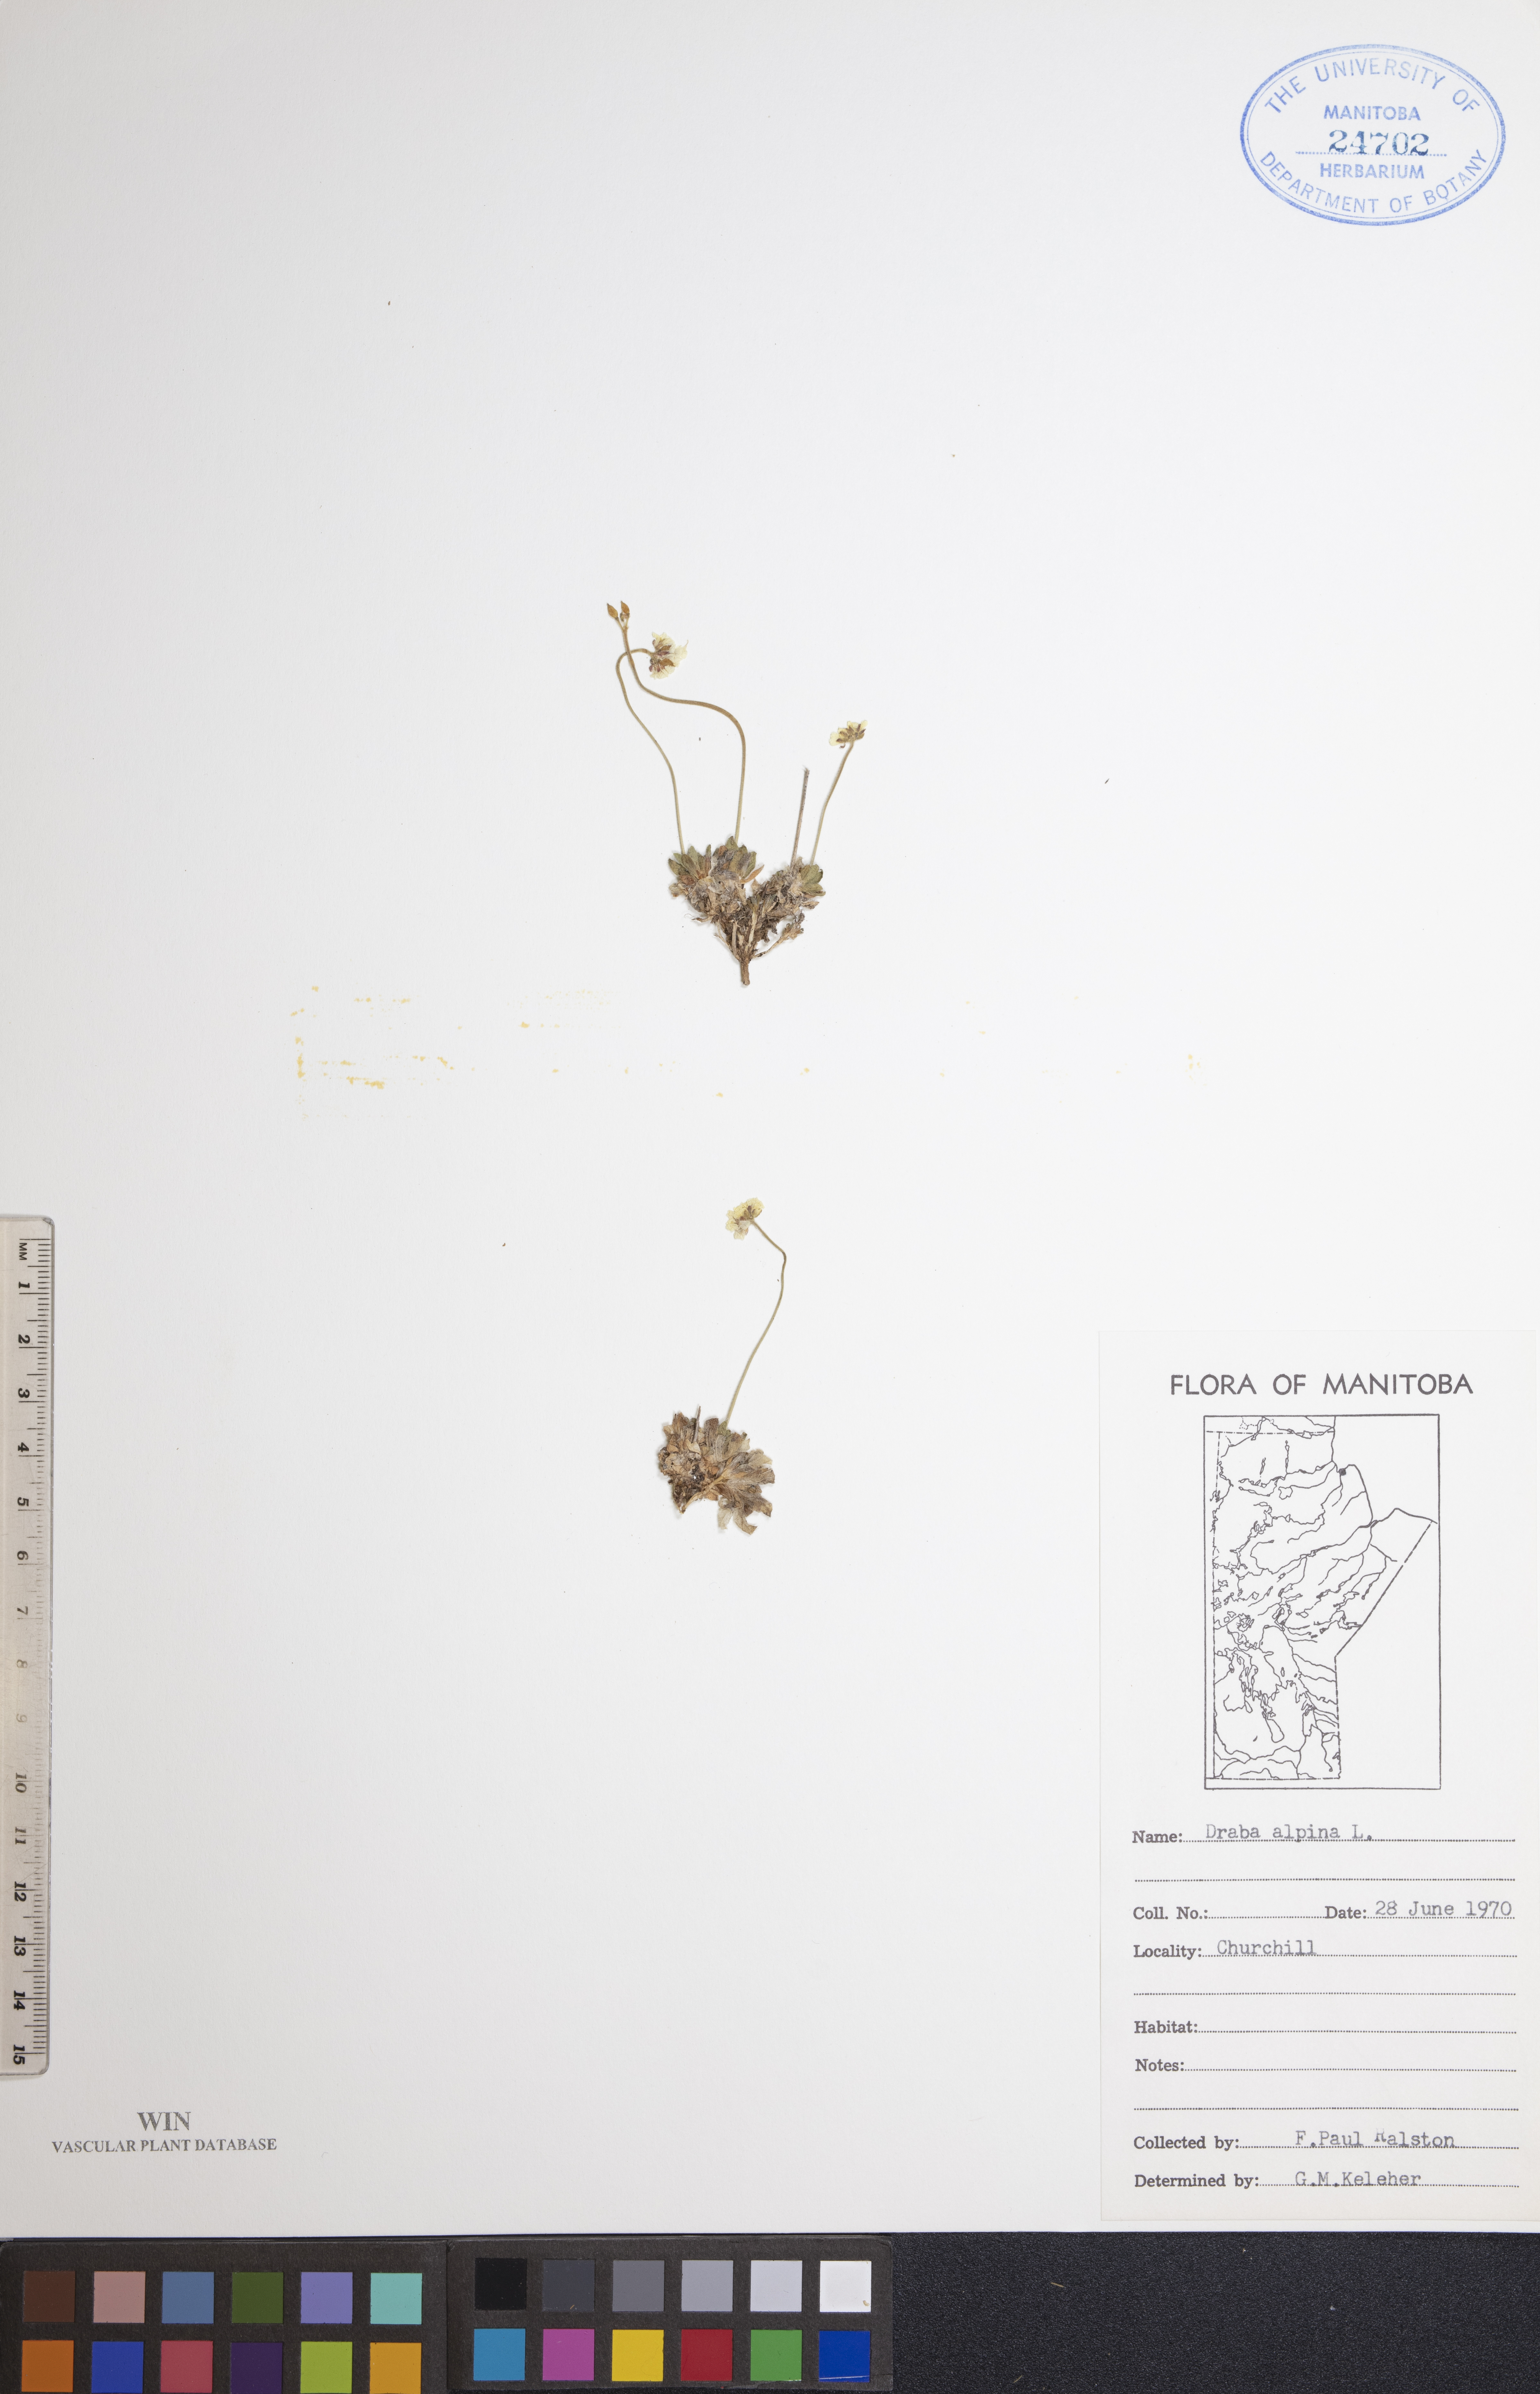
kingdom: Plantae
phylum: Tracheophyta
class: Magnoliopsida
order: Brassicales
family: Brassicaceae
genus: Draba
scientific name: Draba alpina
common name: Alpine draba
